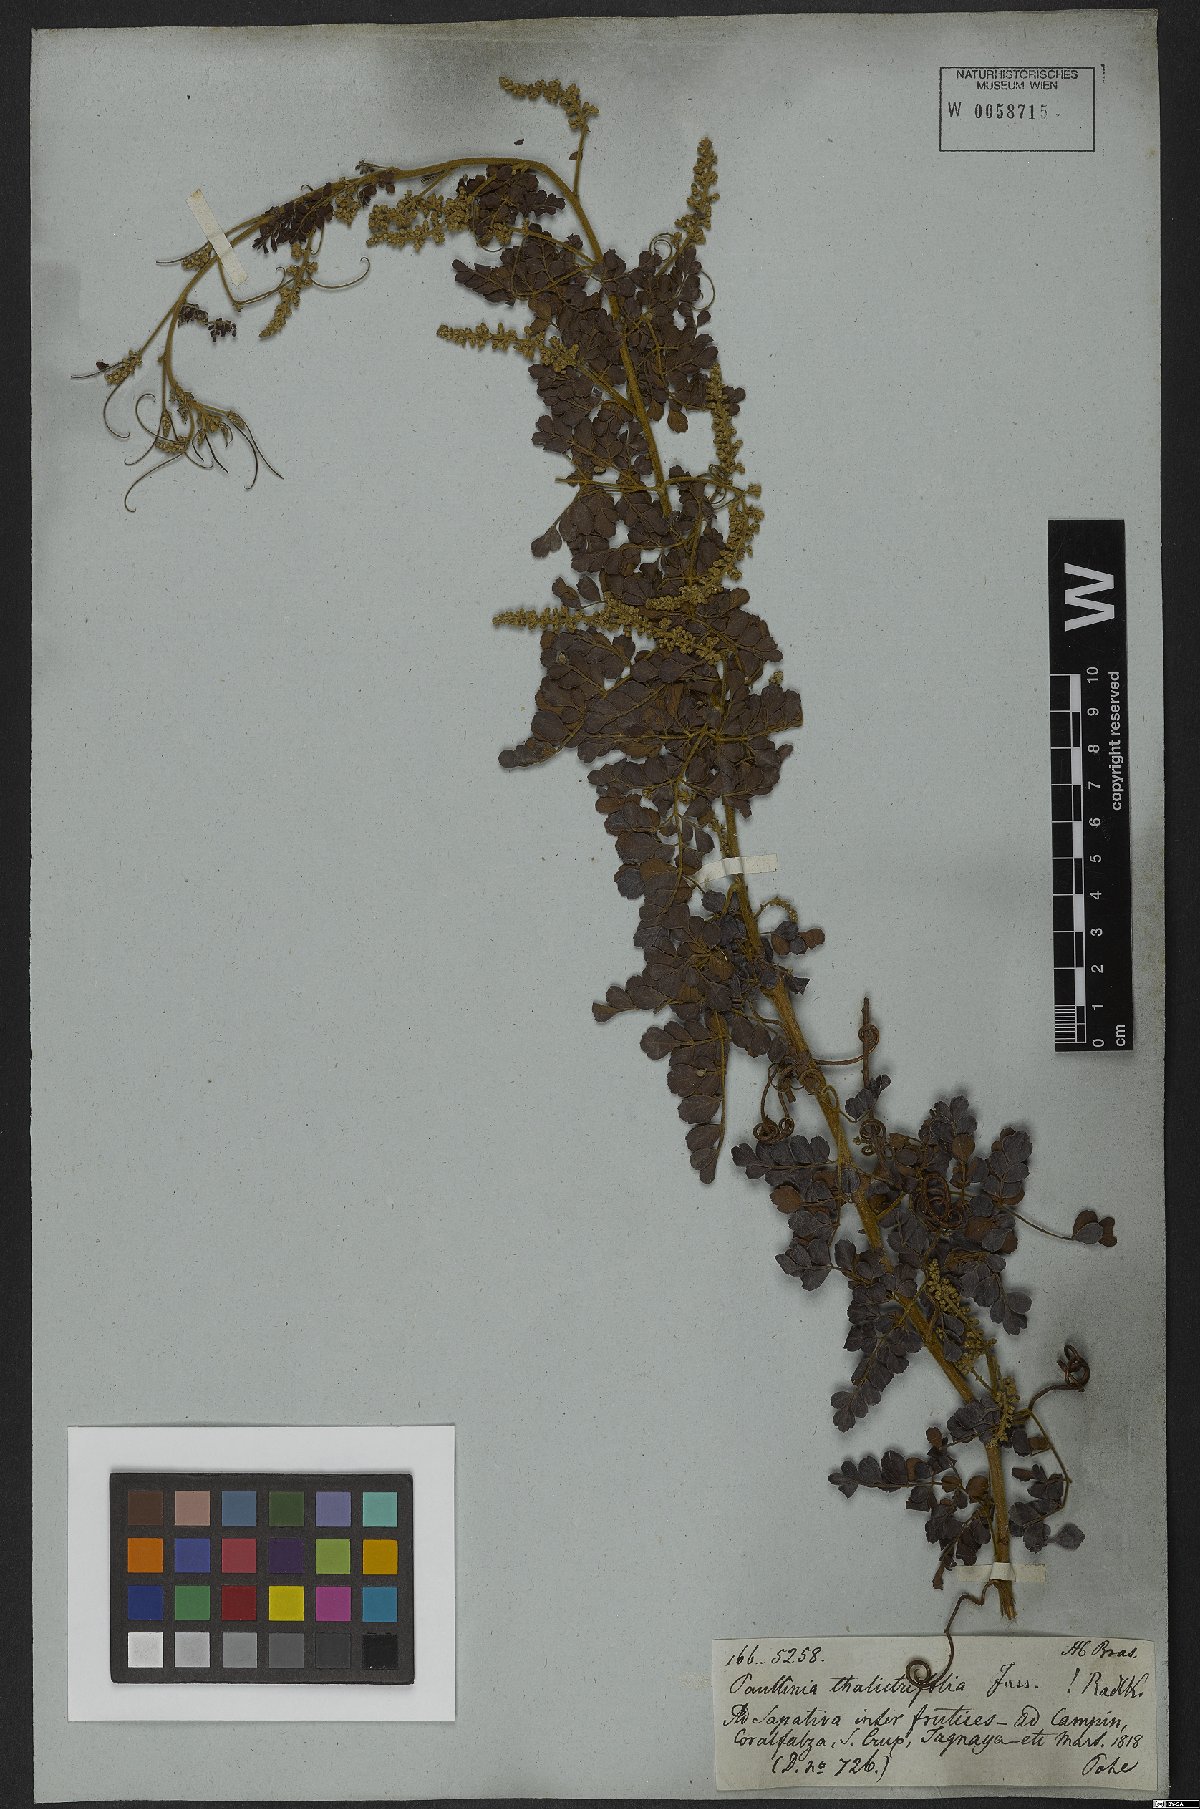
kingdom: Plantae
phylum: Tracheophyta
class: Magnoliopsida
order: Sapindales
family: Sapindaceae
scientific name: Sapindaceae
